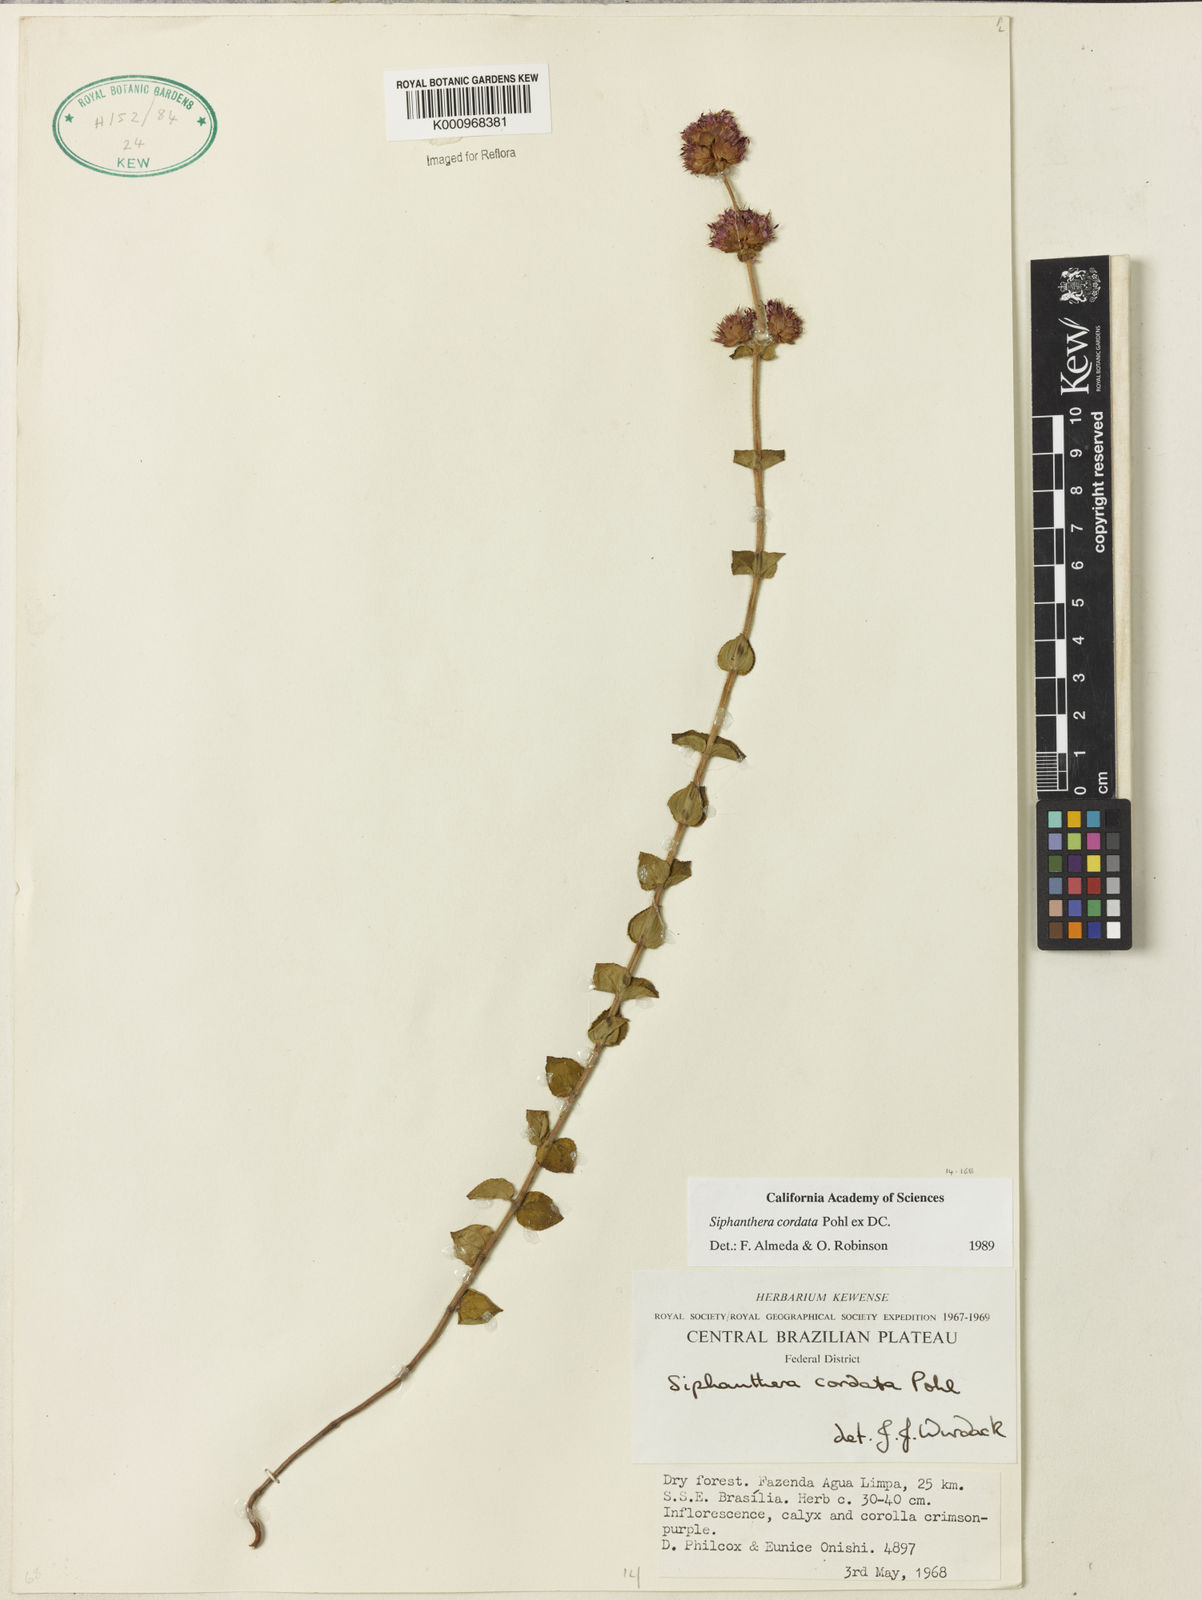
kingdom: Plantae
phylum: Tracheophyta
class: Magnoliopsida
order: Myrtales
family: Melastomataceae
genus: Siphanthera
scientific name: Siphanthera
